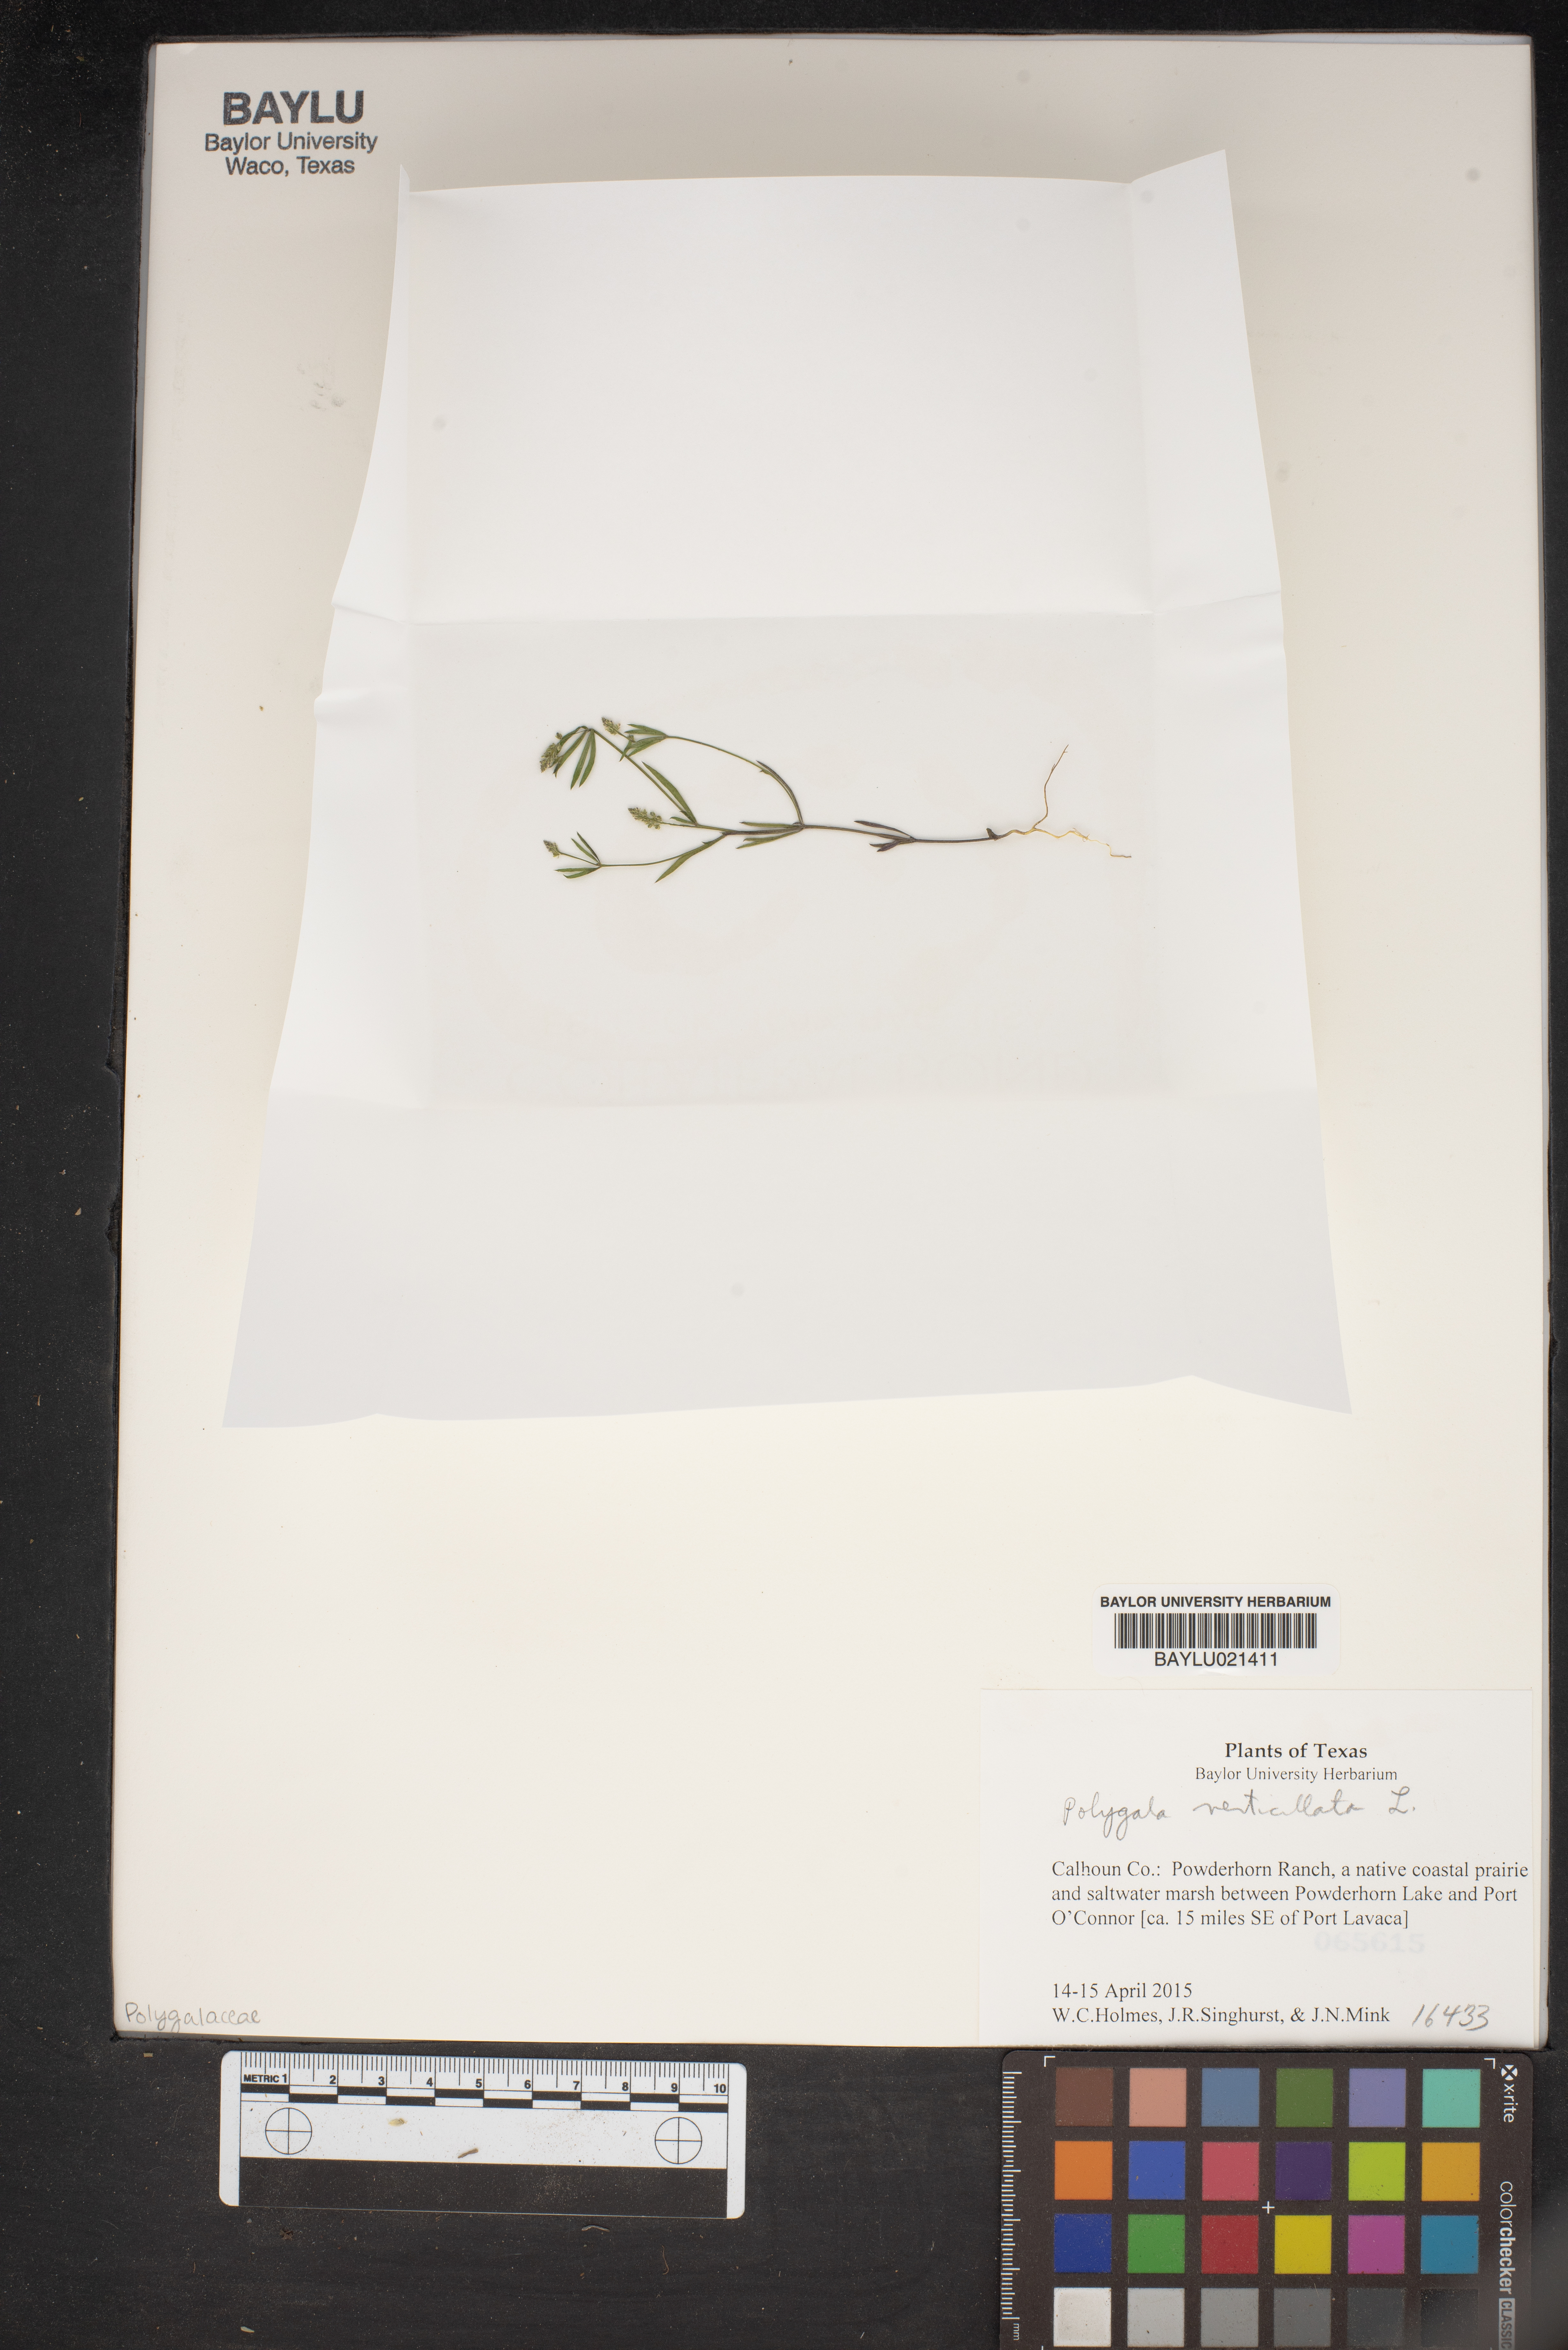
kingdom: Plantae
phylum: Tracheophyta
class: Magnoliopsida
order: Fabales
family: Polygalaceae
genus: Polygala
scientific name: Polygala verticillata
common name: Whorl milkwort
